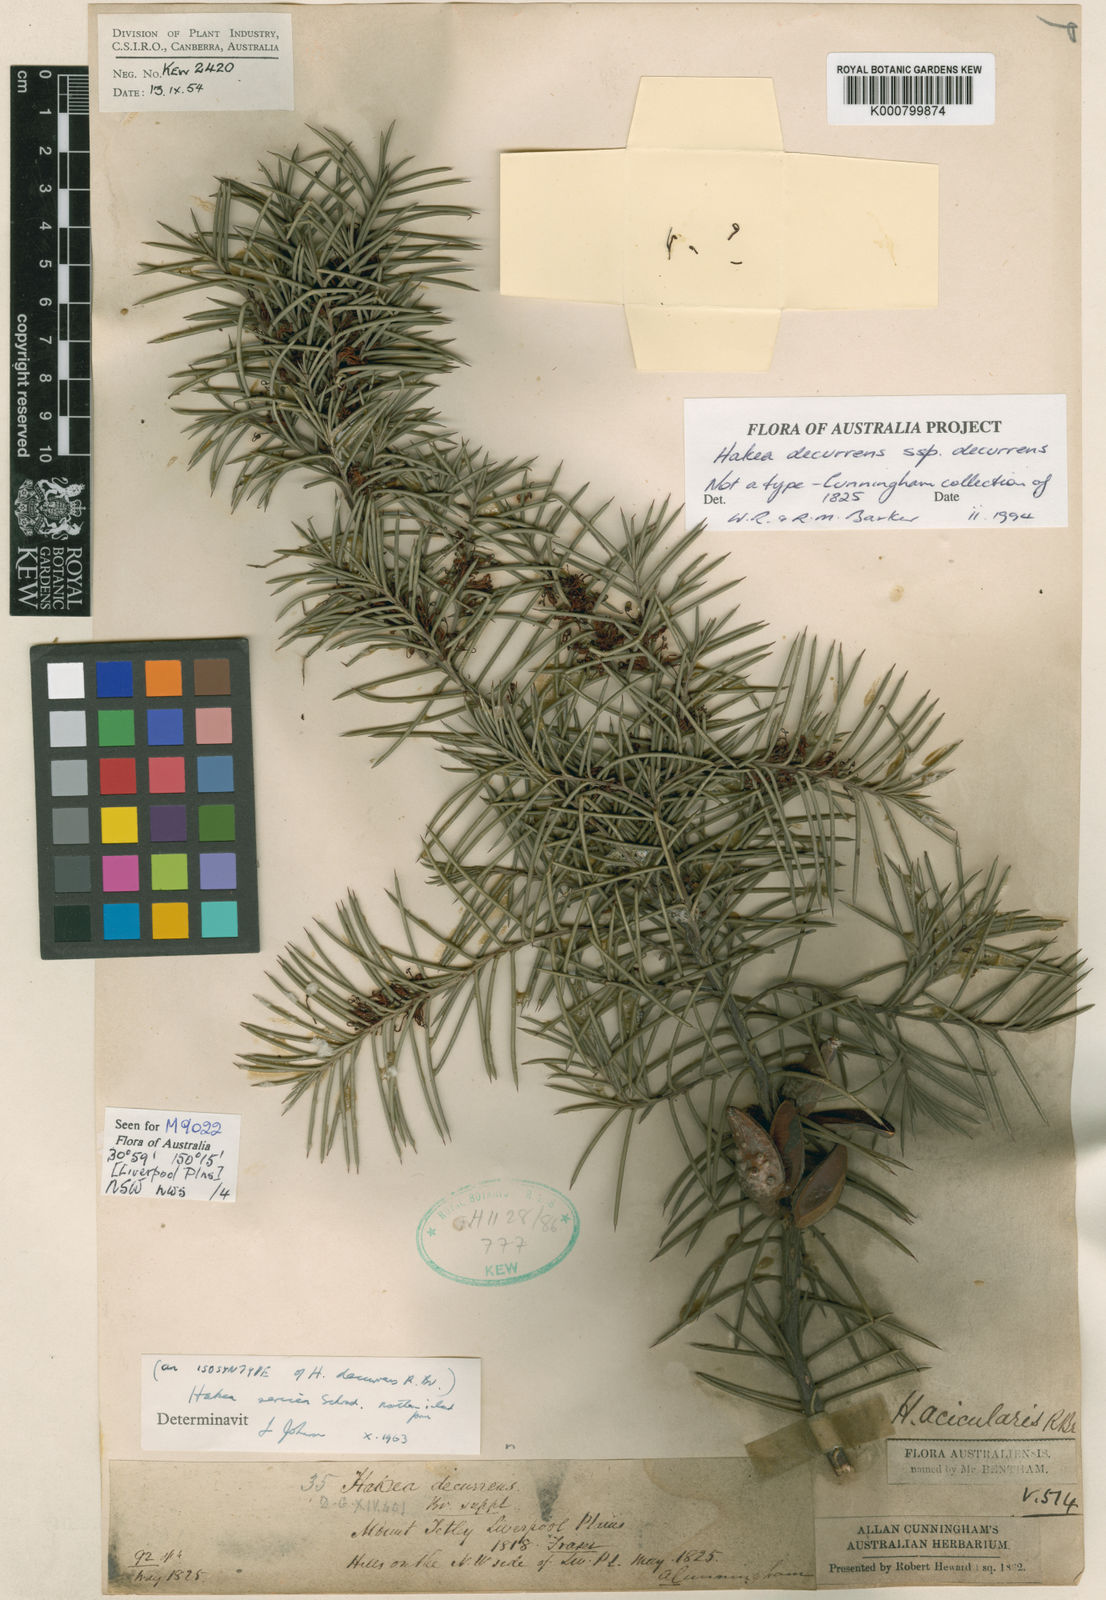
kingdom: Plantae
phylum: Tracheophyta
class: Magnoliopsida
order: Proteales
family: Proteaceae
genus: Hakea
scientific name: Hakea sericea
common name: Needle bush
